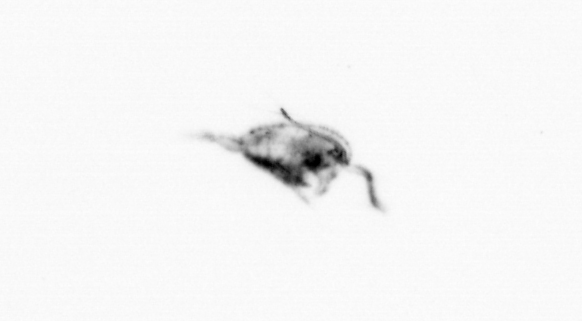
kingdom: Animalia
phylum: Arthropoda
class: Copepoda
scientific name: Copepoda
